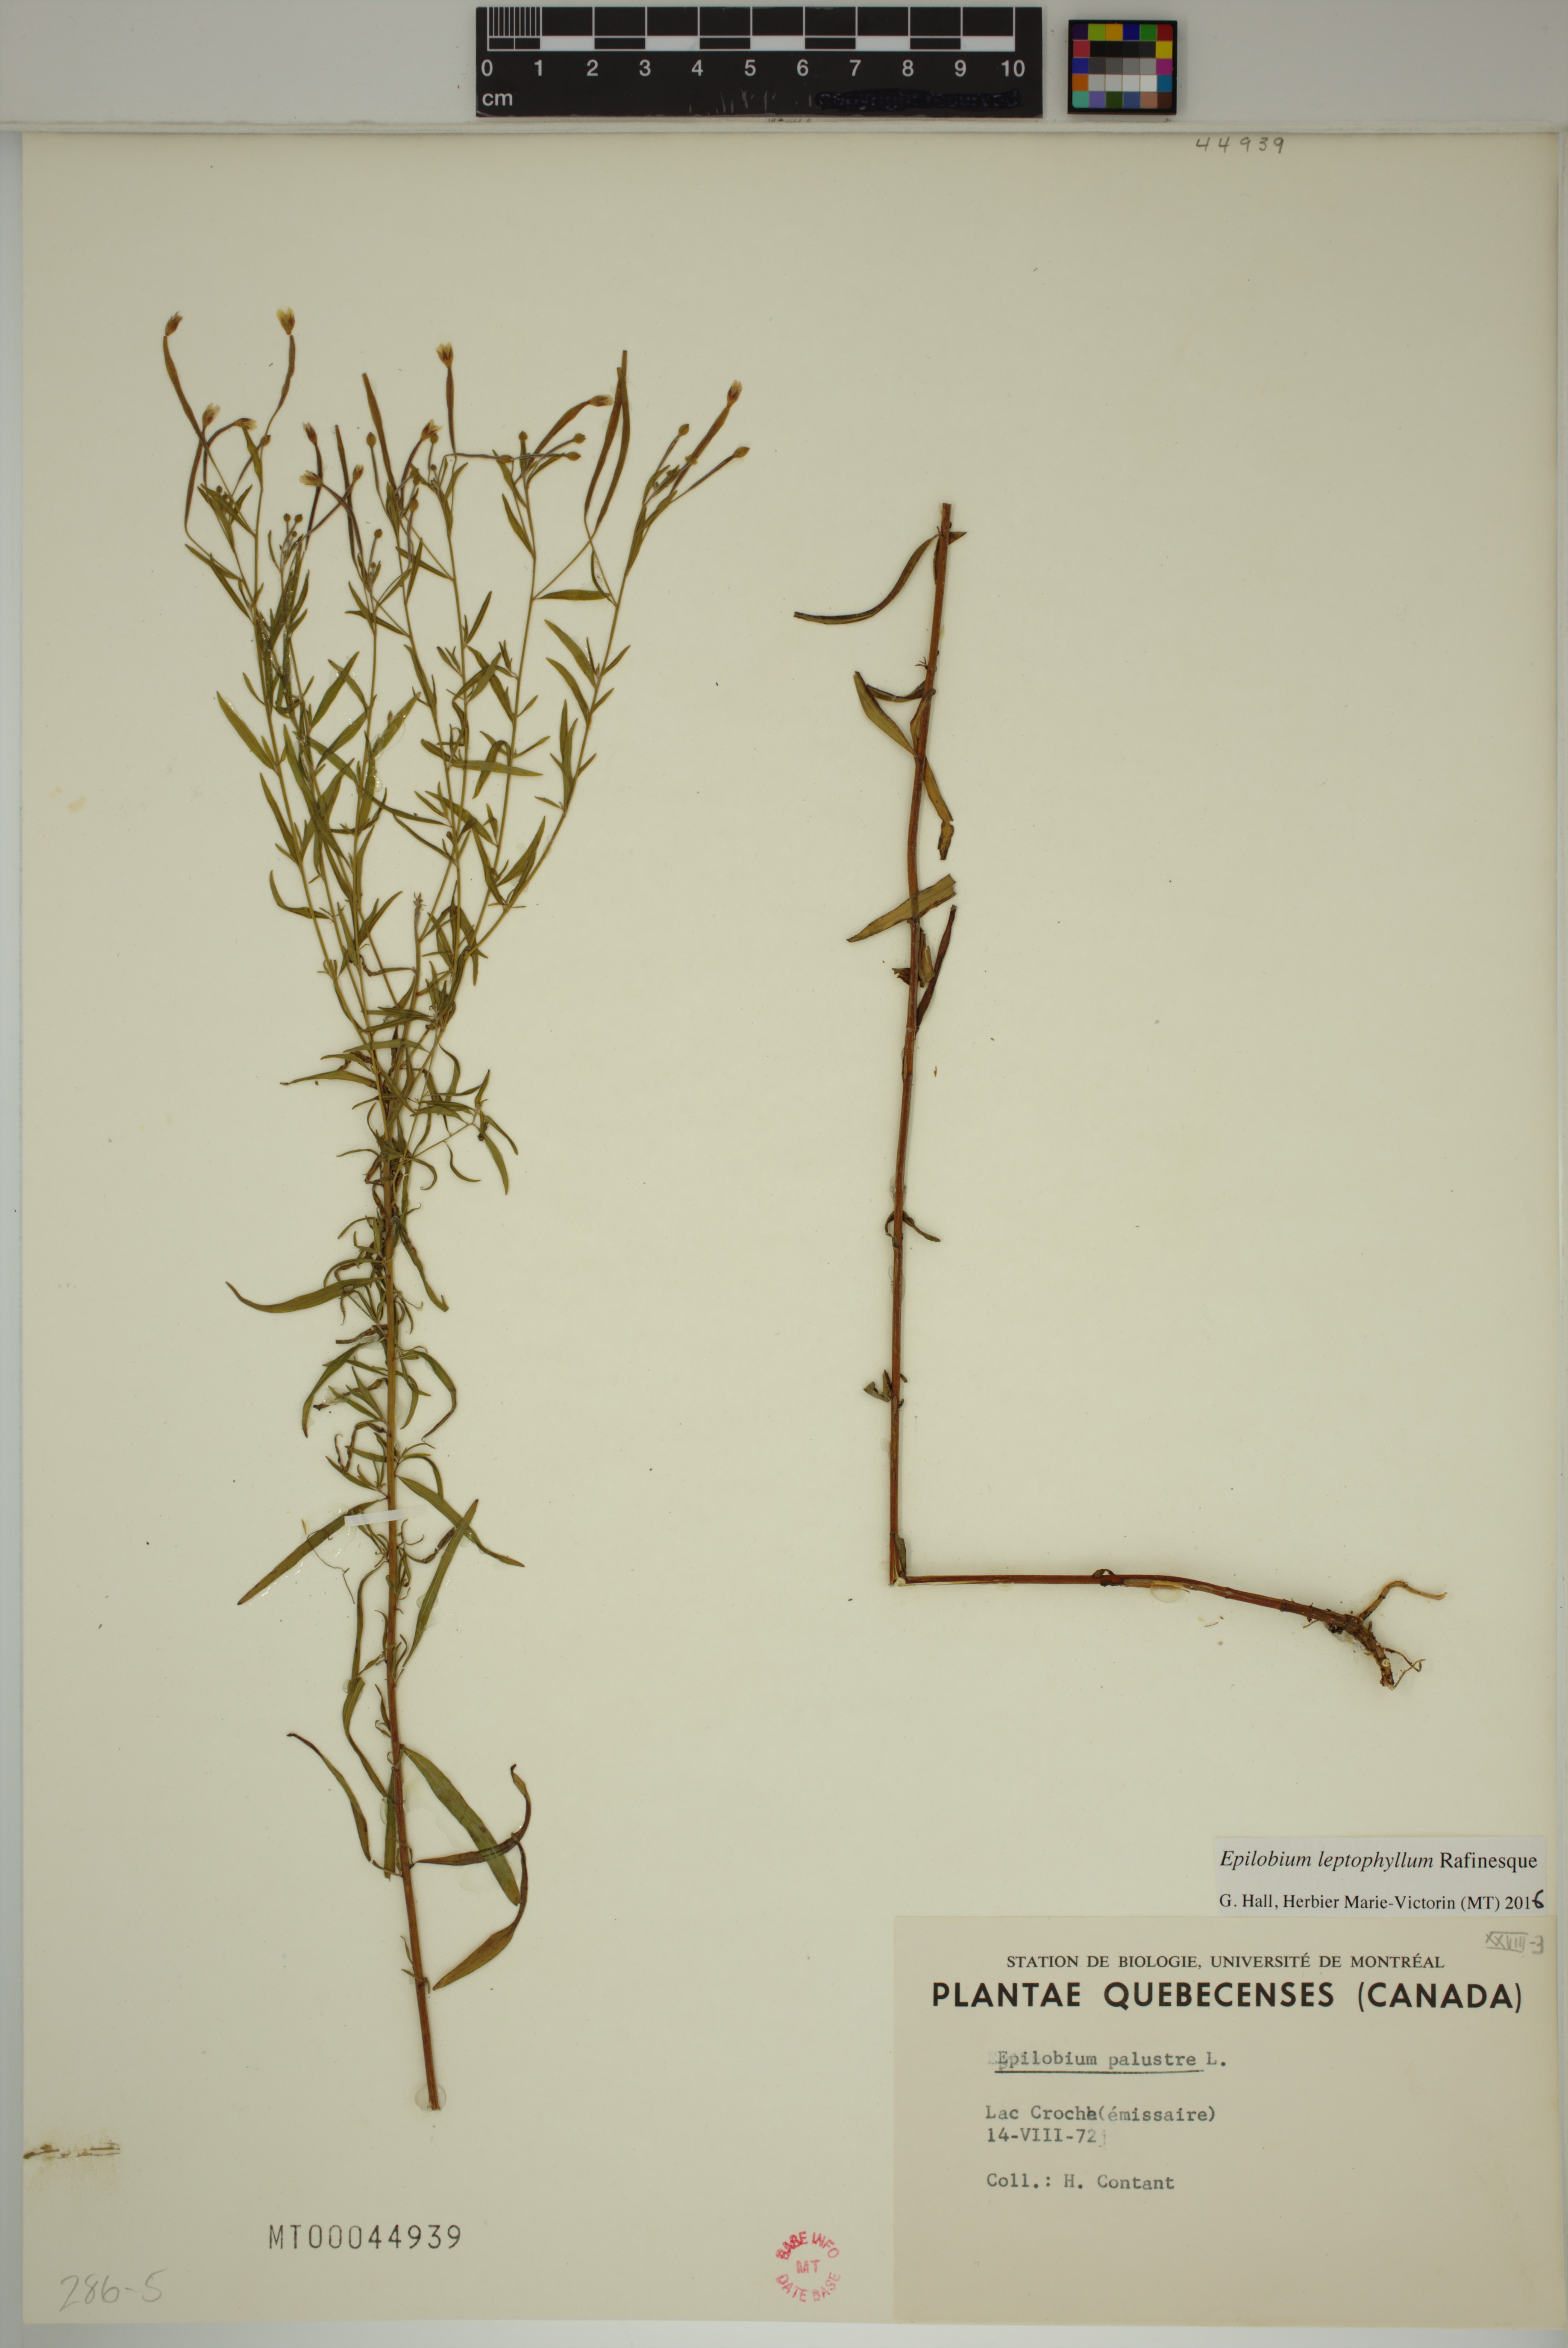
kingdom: Plantae
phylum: Tracheophyta
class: Magnoliopsida
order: Myrtales
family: Onagraceae
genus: Epilobium
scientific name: Epilobium leptophyllum
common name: Bog willowherb
